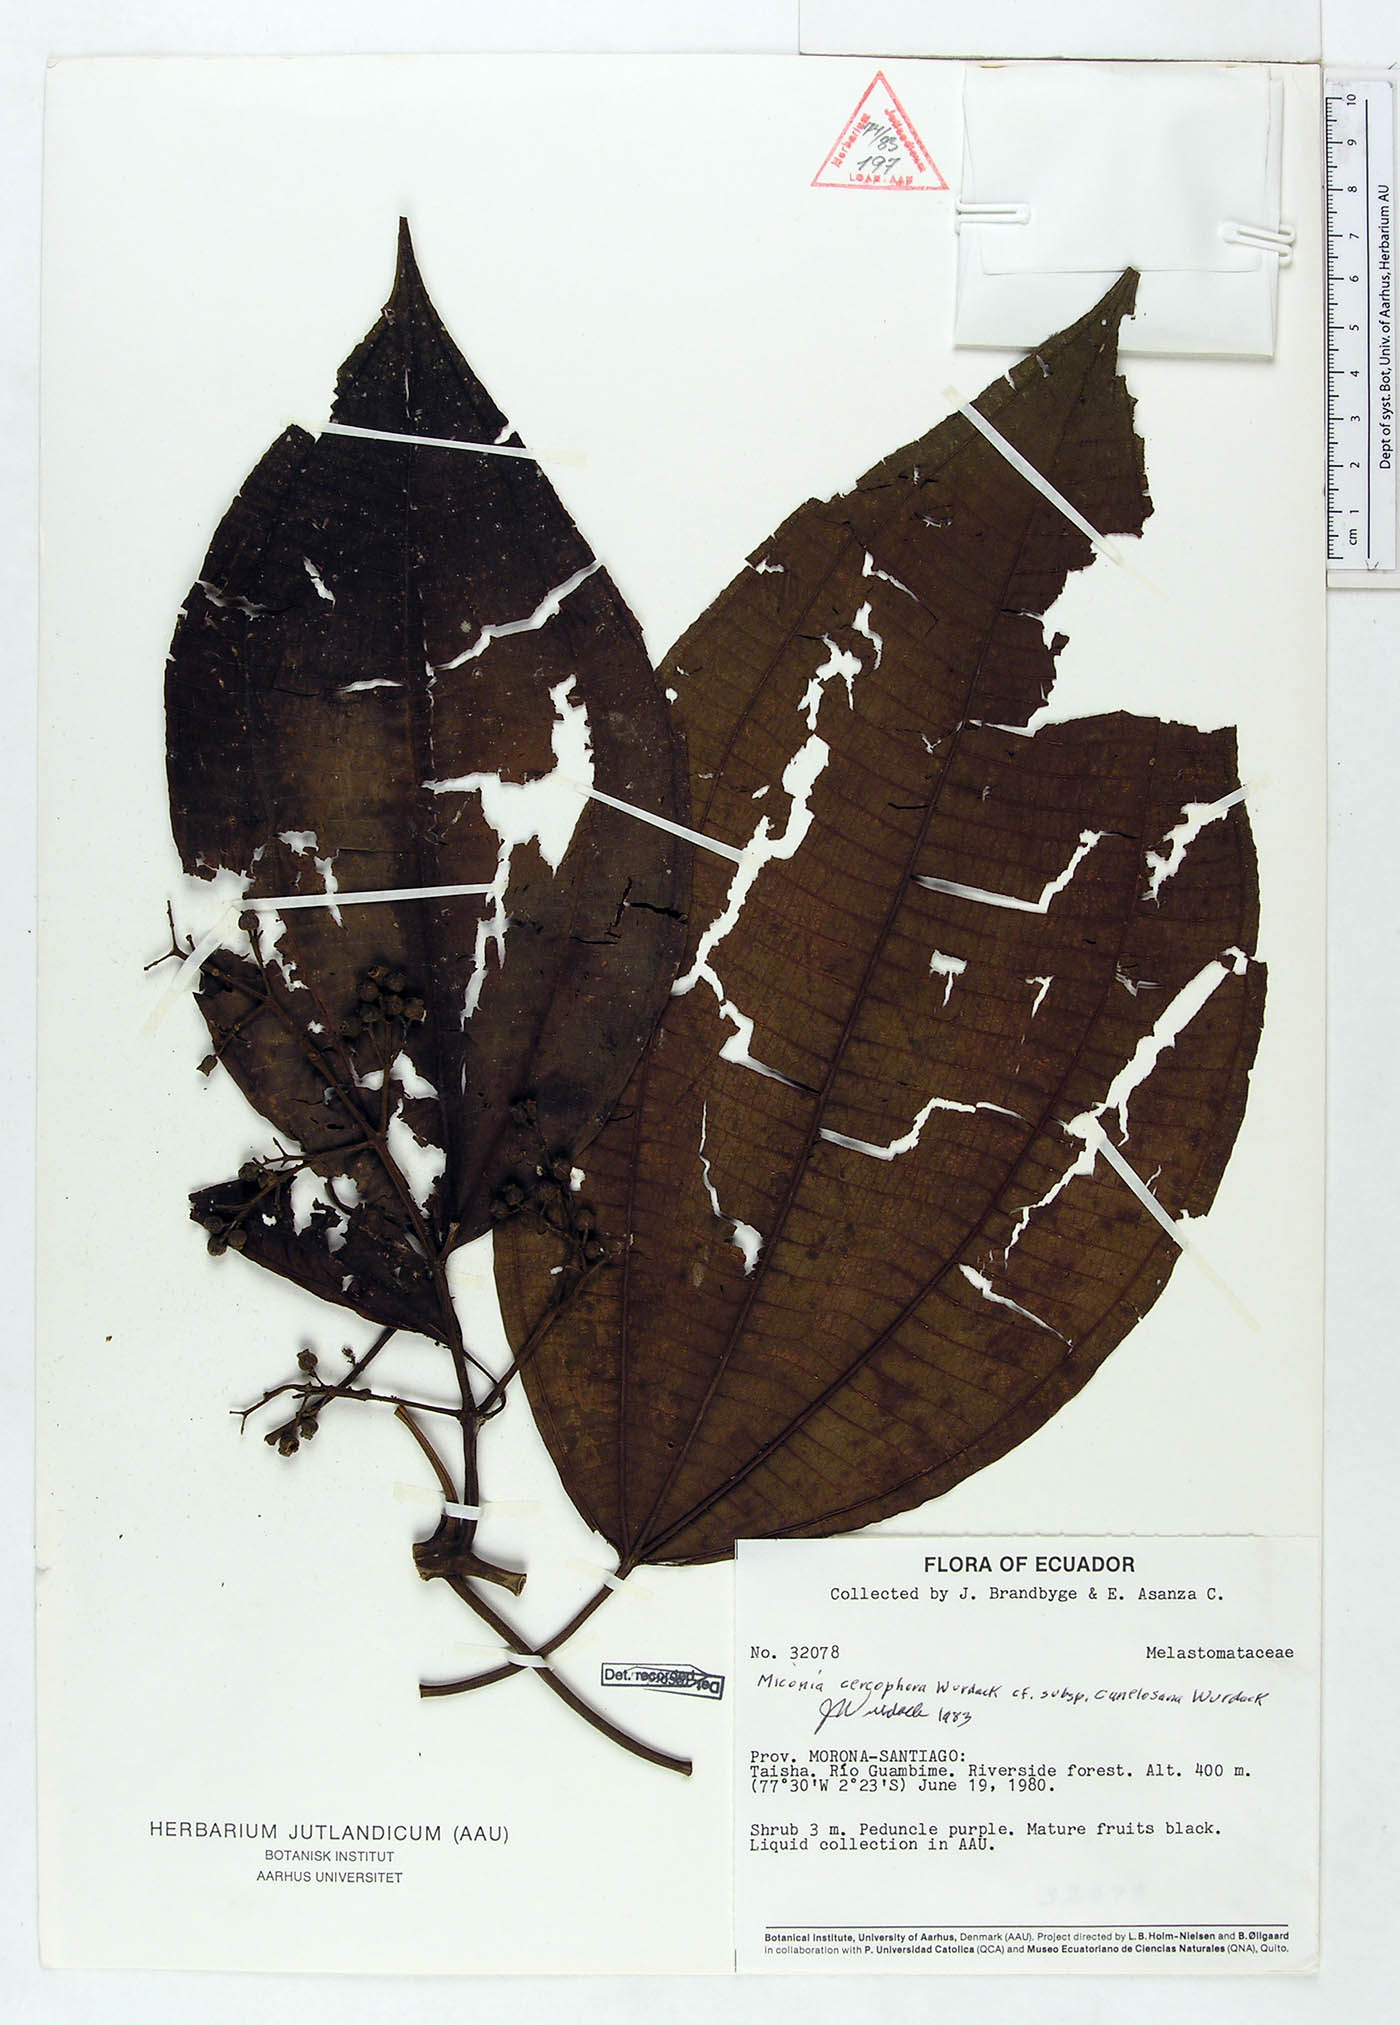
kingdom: Plantae
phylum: Tracheophyta
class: Magnoliopsida
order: Myrtales
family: Melastomataceae
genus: Miconia
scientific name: Miconia cercophora
